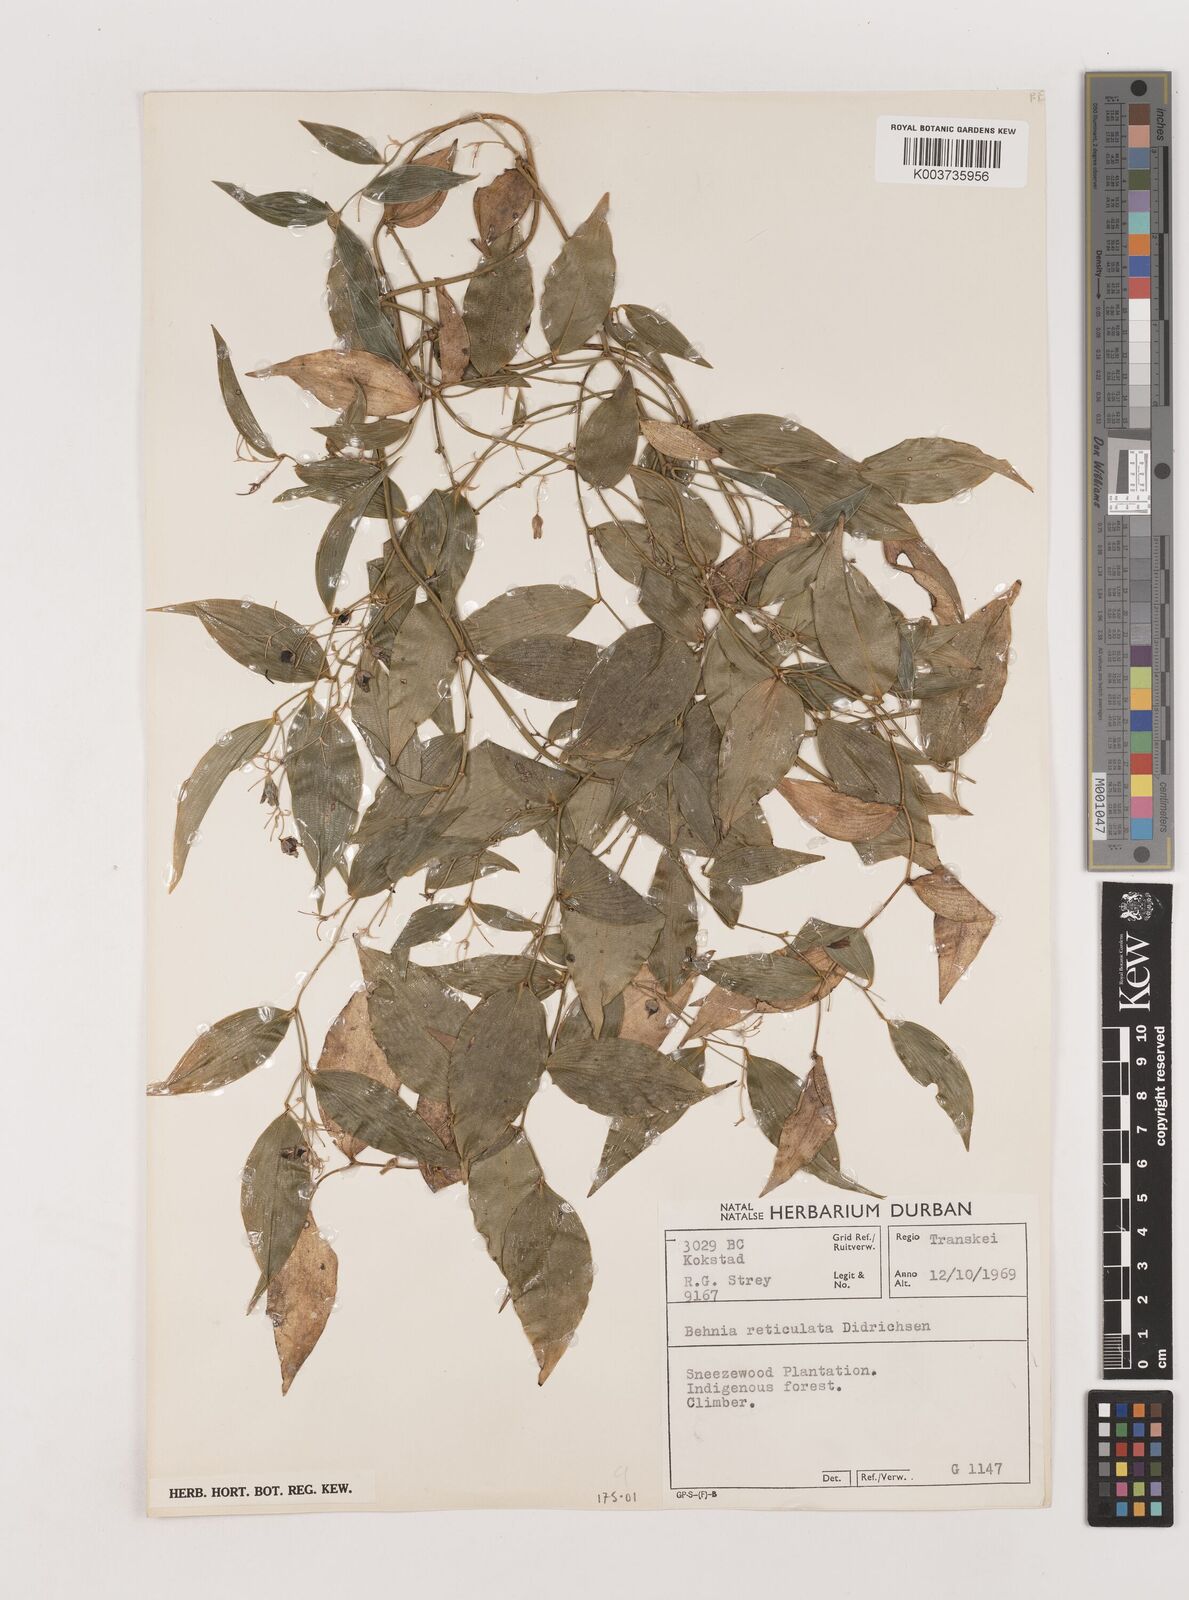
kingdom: Plantae
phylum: Tracheophyta
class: Liliopsida
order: Asparagales
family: Asparagaceae
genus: Behnia
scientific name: Behnia reticulata
